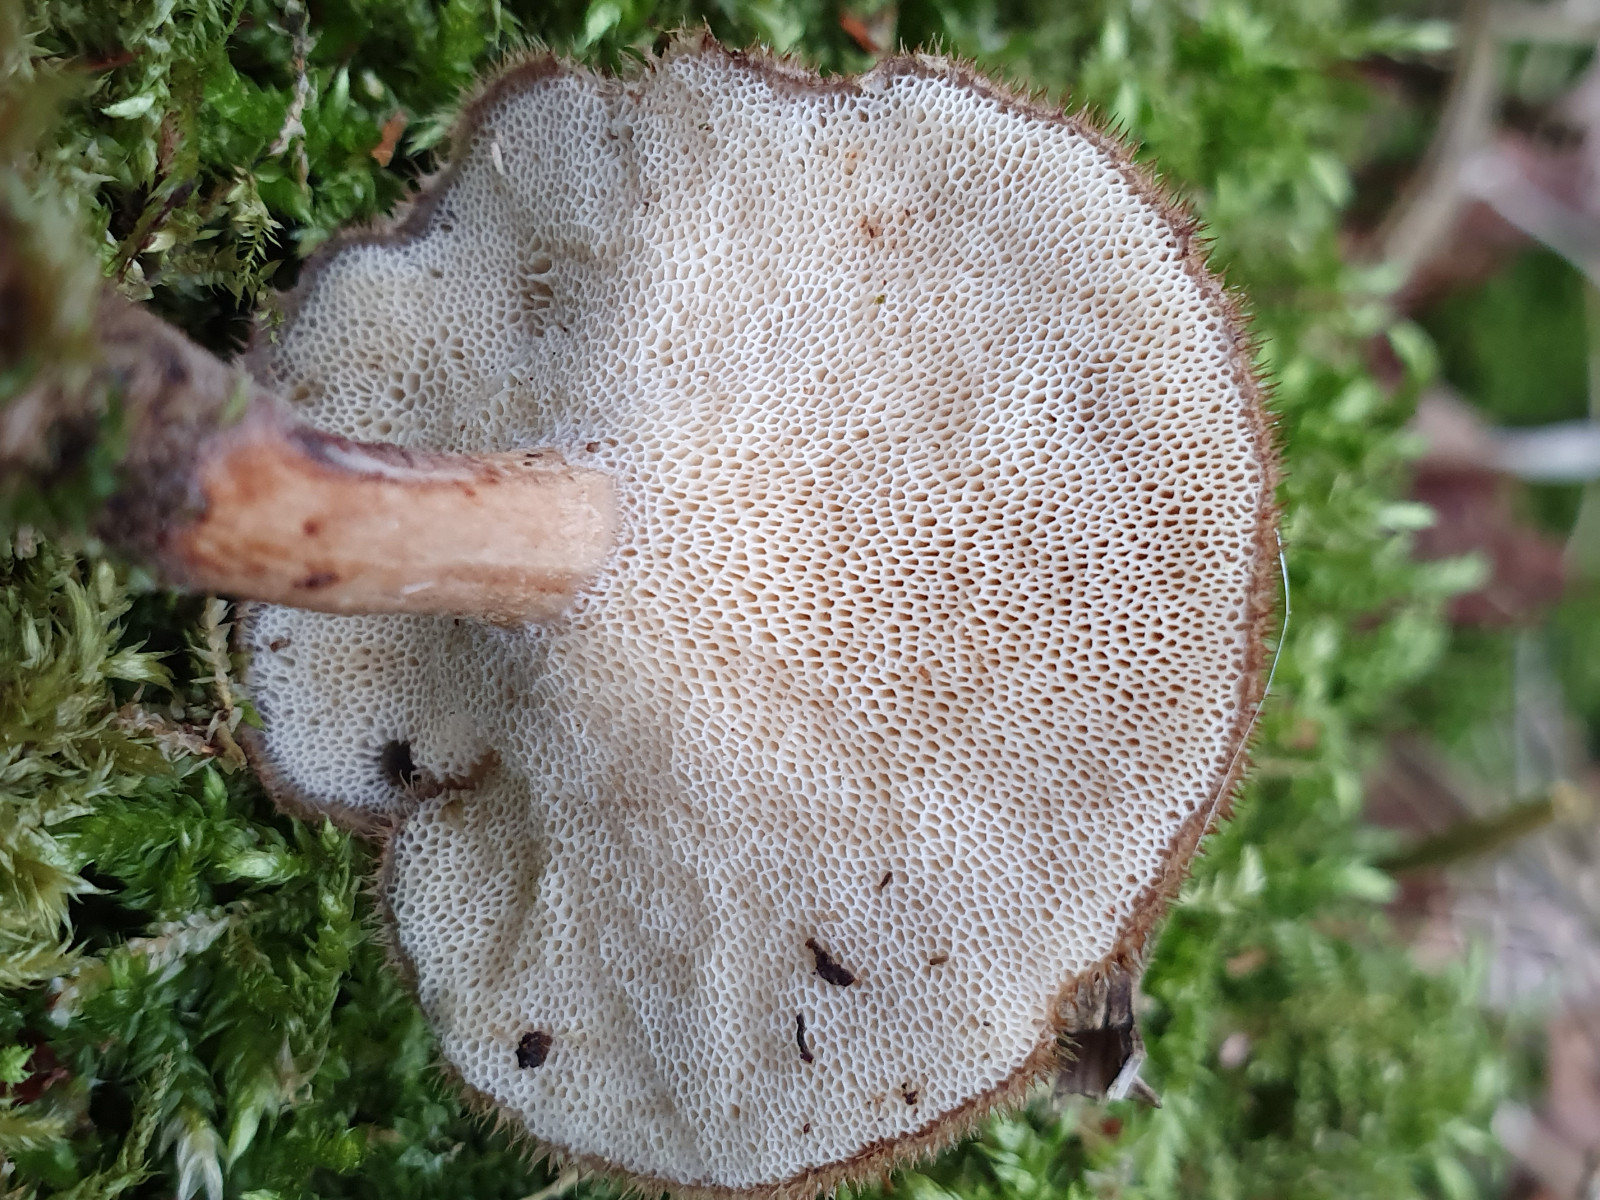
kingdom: Fungi
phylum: Basidiomycota
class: Agaricomycetes
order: Polyporales
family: Polyporaceae
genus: Lentinus
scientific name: Lentinus brumalis
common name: vinter-stilkporesvamp
